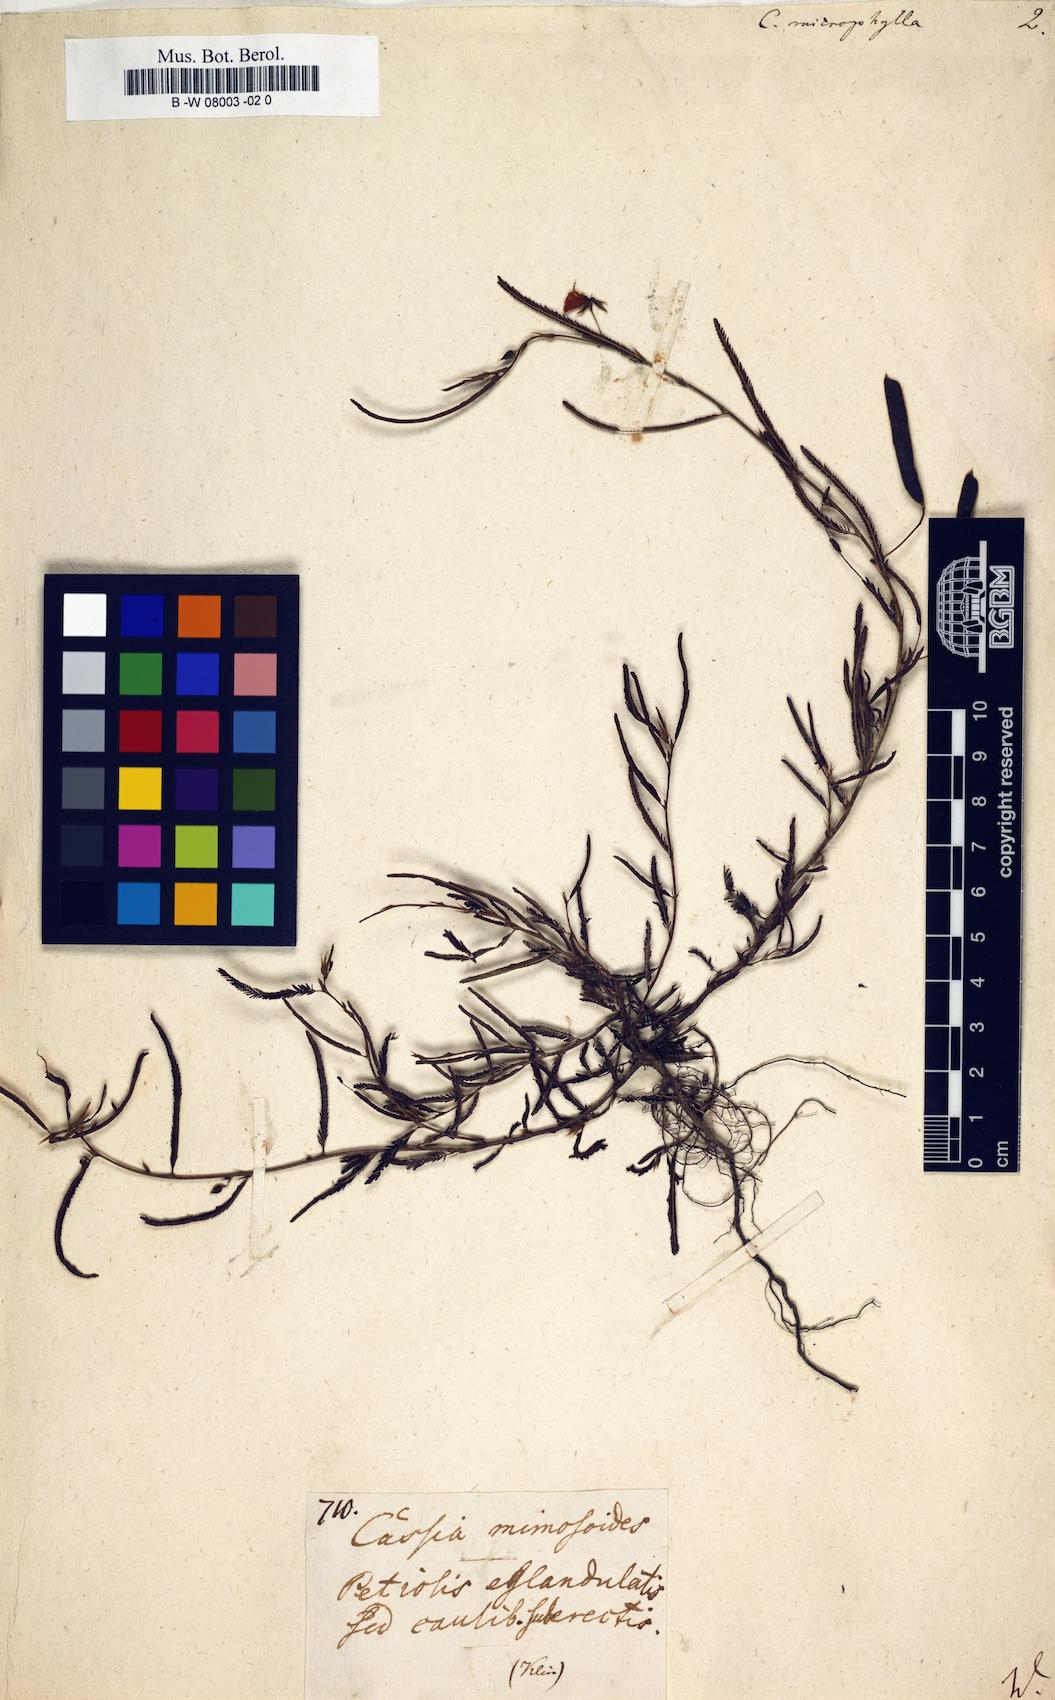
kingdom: Plantae
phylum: Tracheophyta
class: Magnoliopsida
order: Fabales
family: Fabaceae
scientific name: Fabaceae
